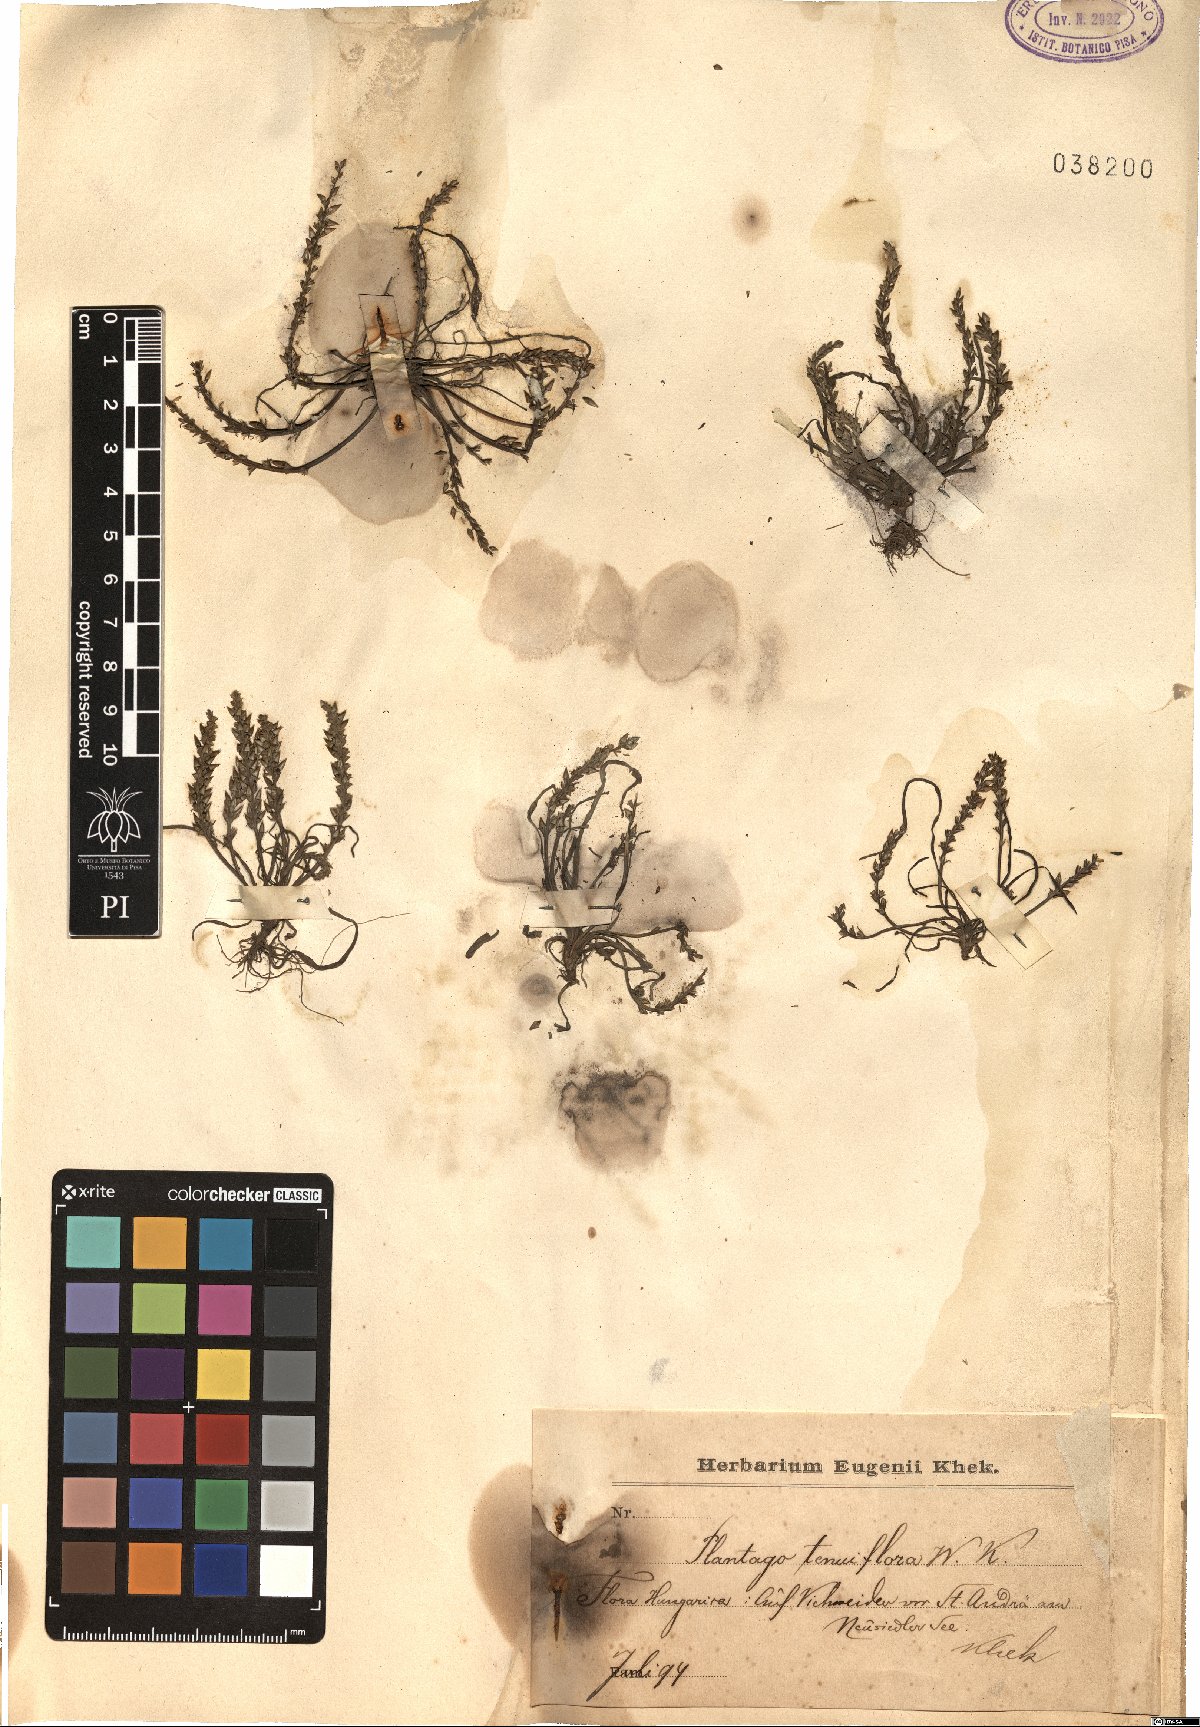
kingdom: Plantae
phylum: Tracheophyta
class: Magnoliopsida
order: Lamiales
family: Plantaginaceae
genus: Plantago
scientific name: Plantago tenuiflora
